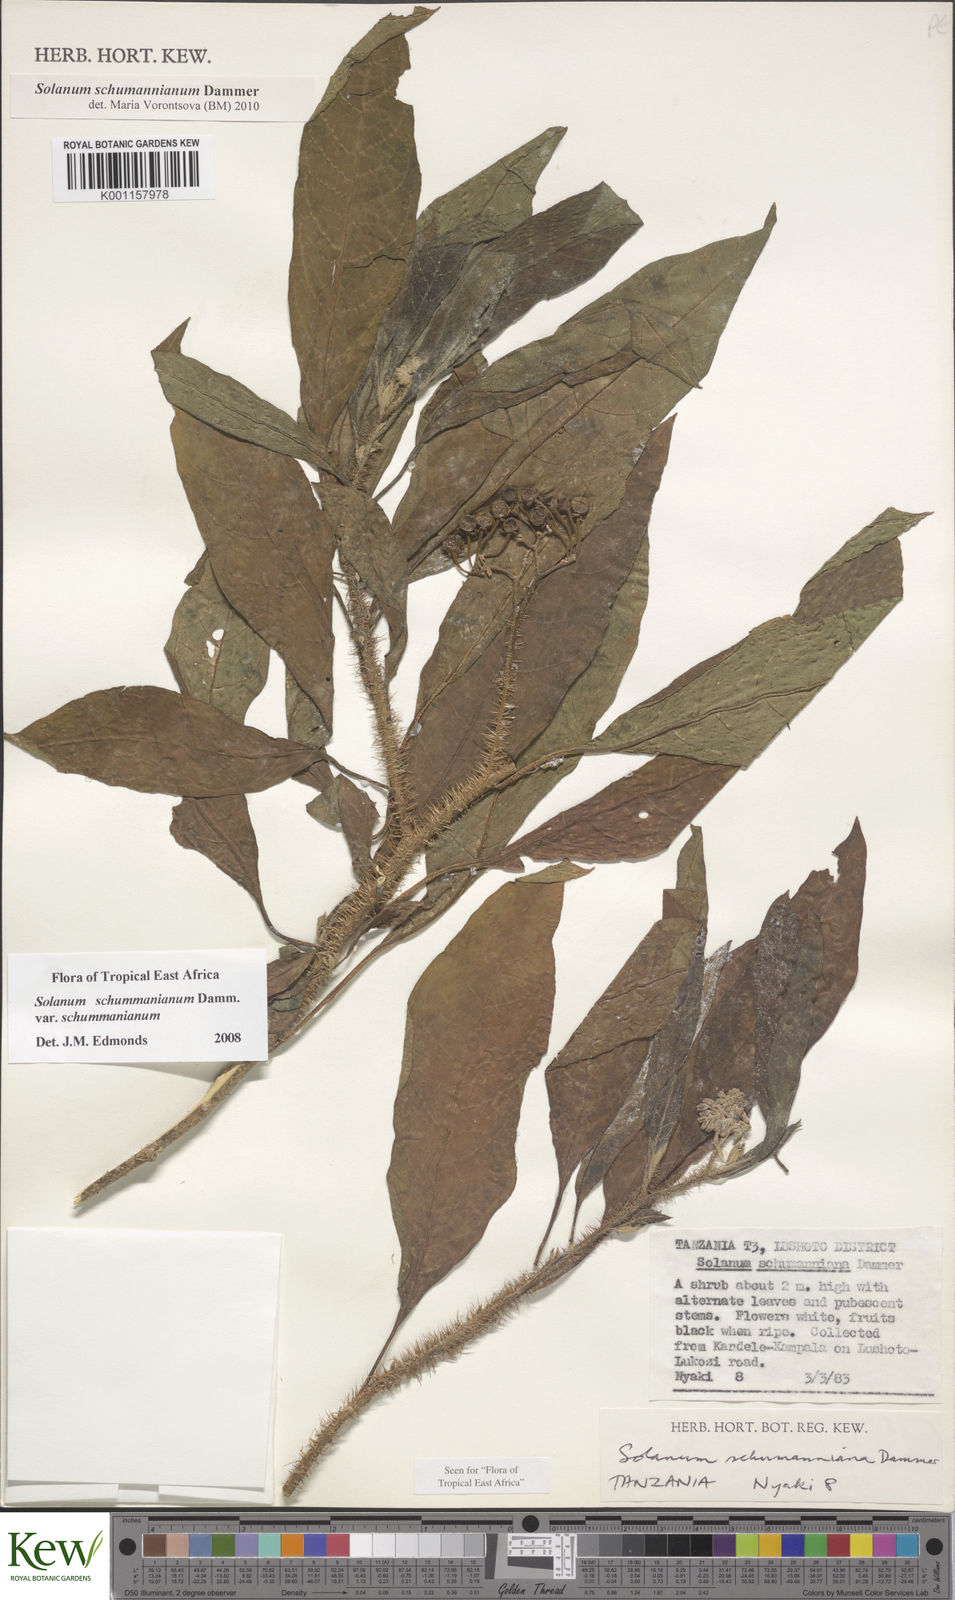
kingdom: Plantae
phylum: Tracheophyta
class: Magnoliopsida
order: Solanales
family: Solanaceae
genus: Solanum
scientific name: Solanum schumannianum
